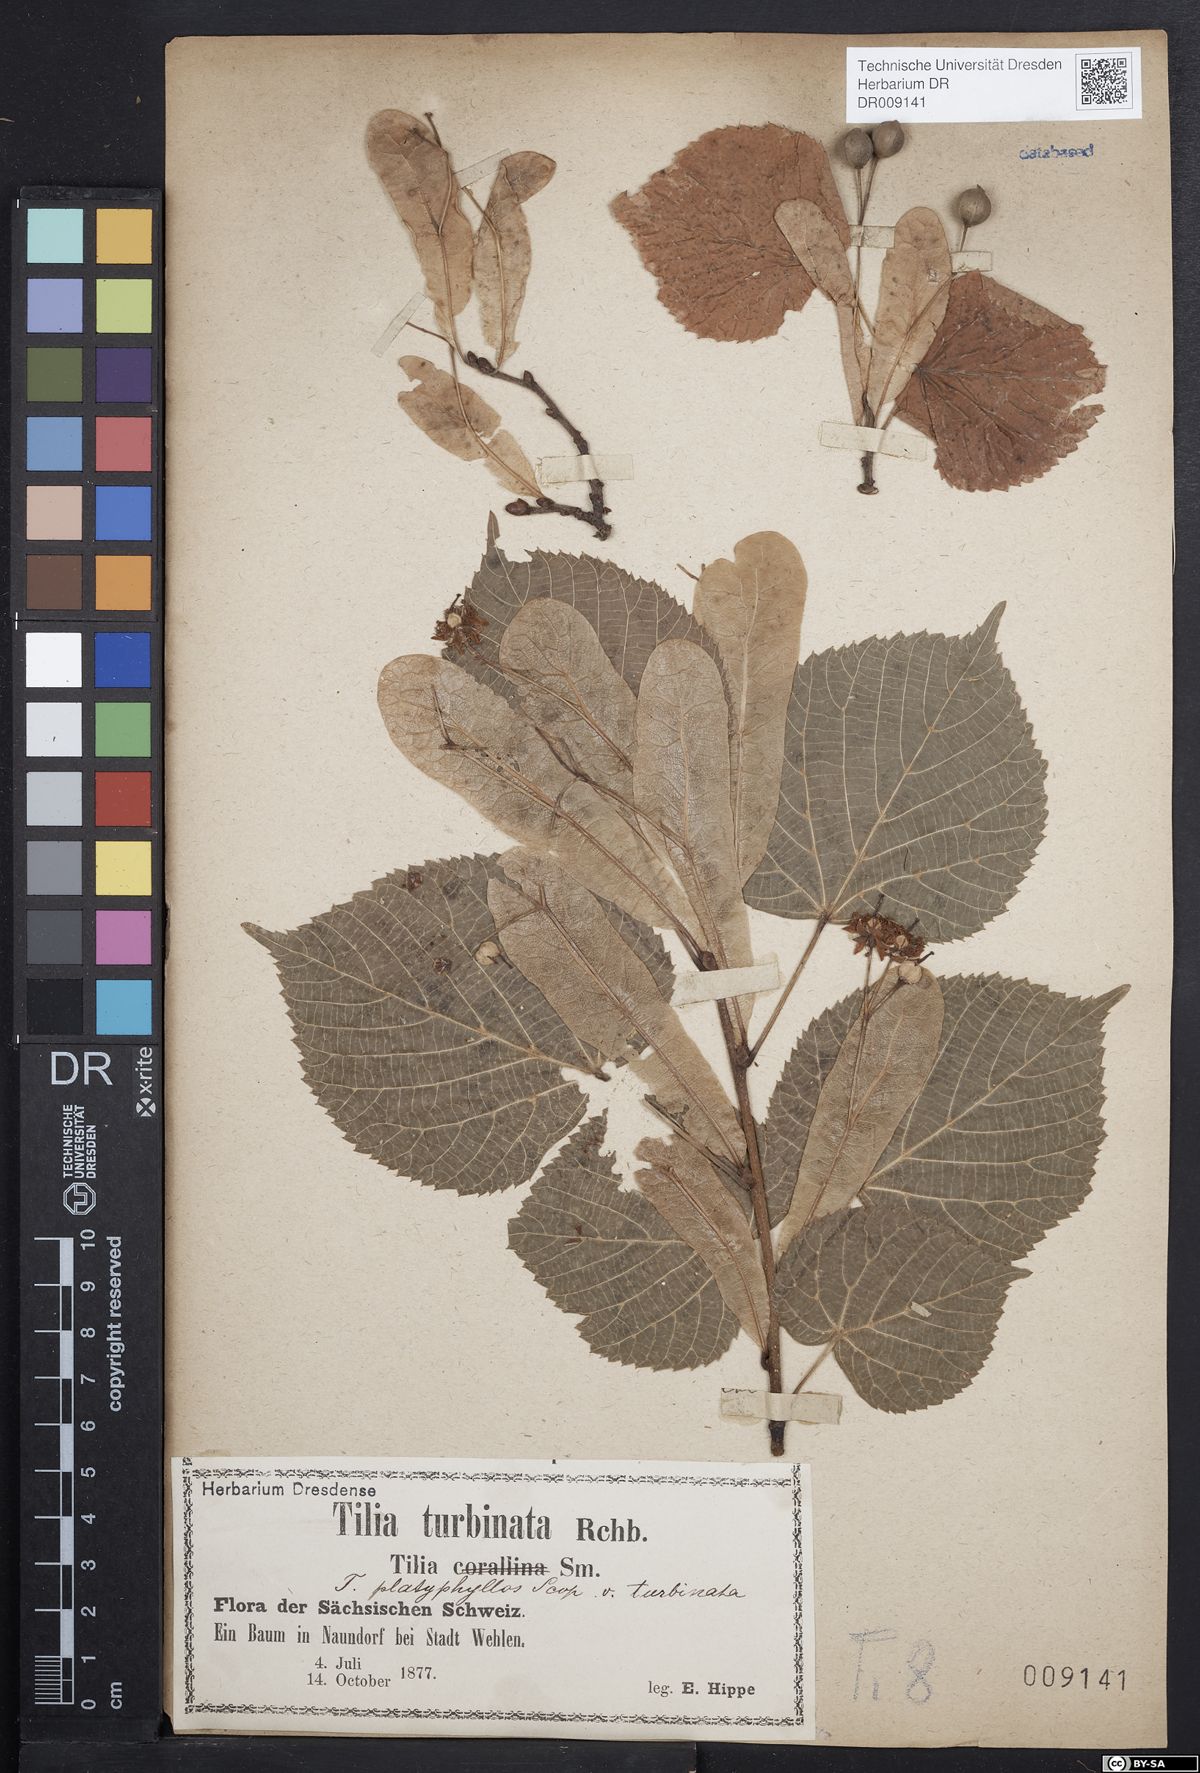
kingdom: Plantae
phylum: Tracheophyta
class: Magnoliopsida
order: Malvales
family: Malvaceae
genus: Tilia
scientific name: Tilia platyphyllos
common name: Large-leaved lime
